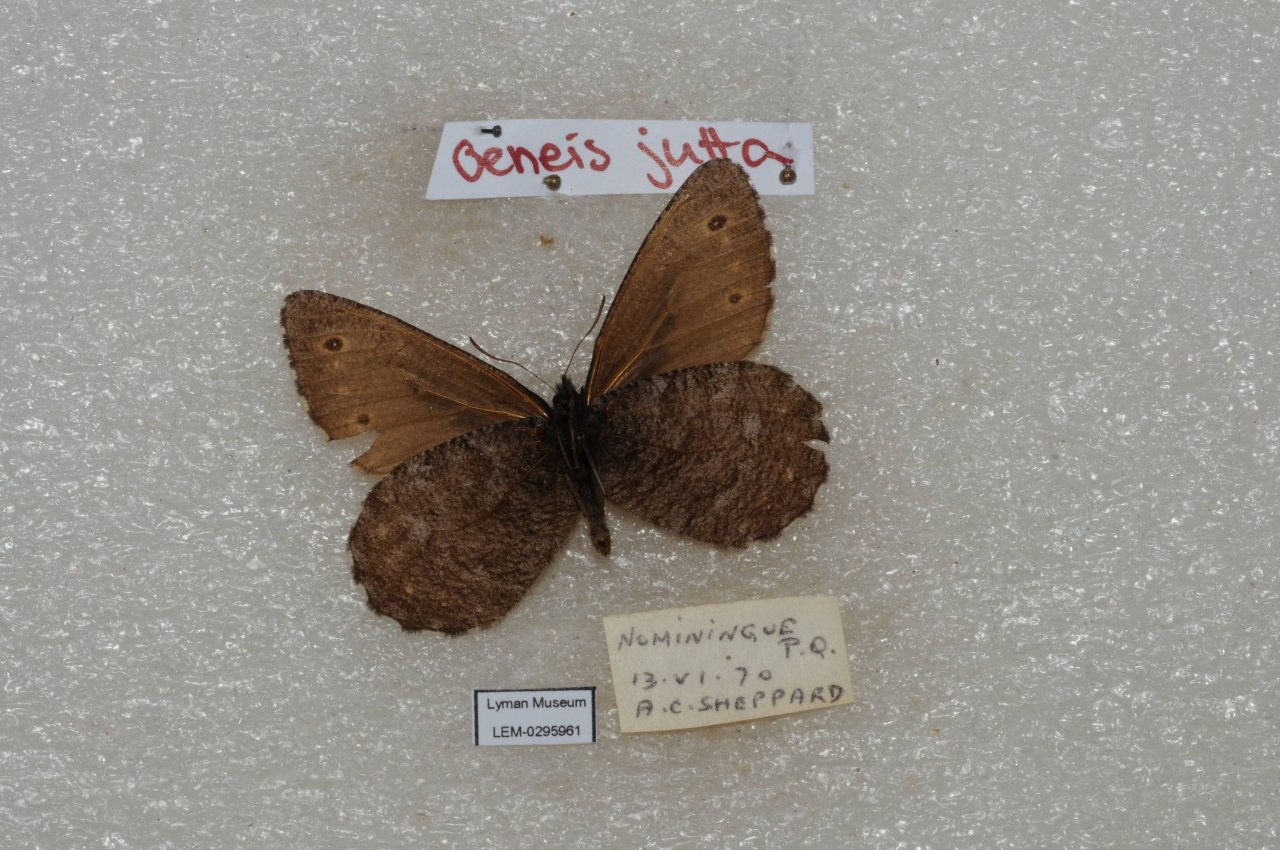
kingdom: Animalia
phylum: Arthropoda
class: Insecta
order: Lepidoptera
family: Nymphalidae
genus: Oeneis
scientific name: Oeneis jutta
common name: Jutta Arctic
